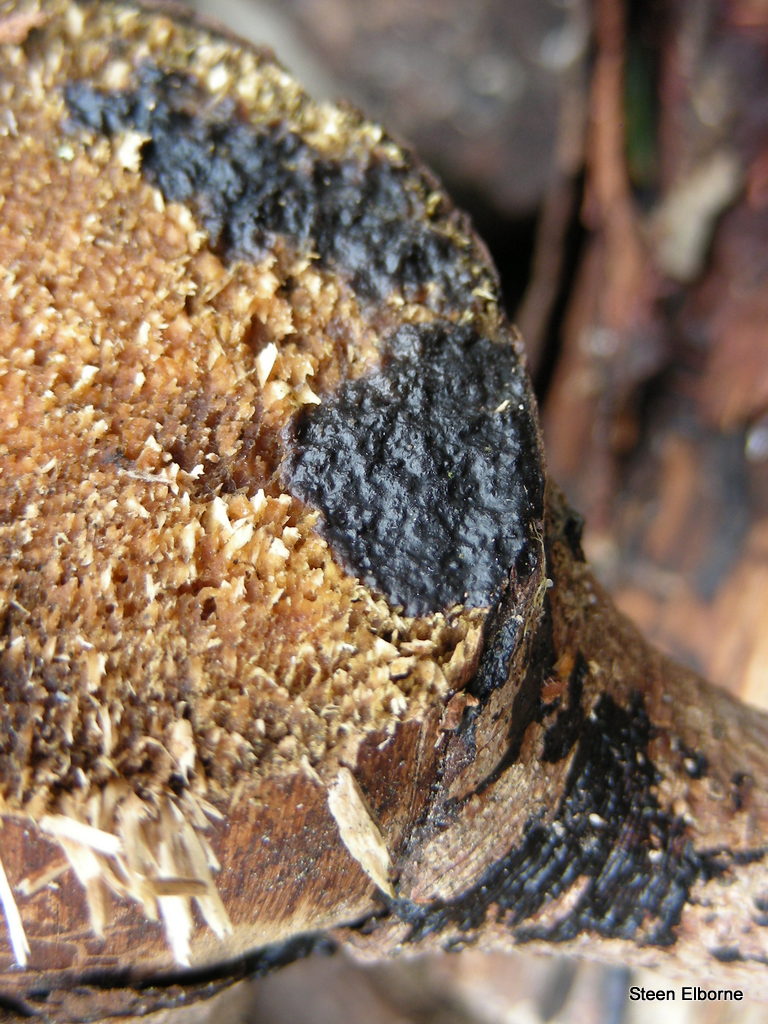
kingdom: Fungi
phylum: Basidiomycota
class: Agaricomycetes
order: Auriculariales
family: Auriculariaceae
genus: Exidia
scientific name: Exidia pithya
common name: gran-bævretop
